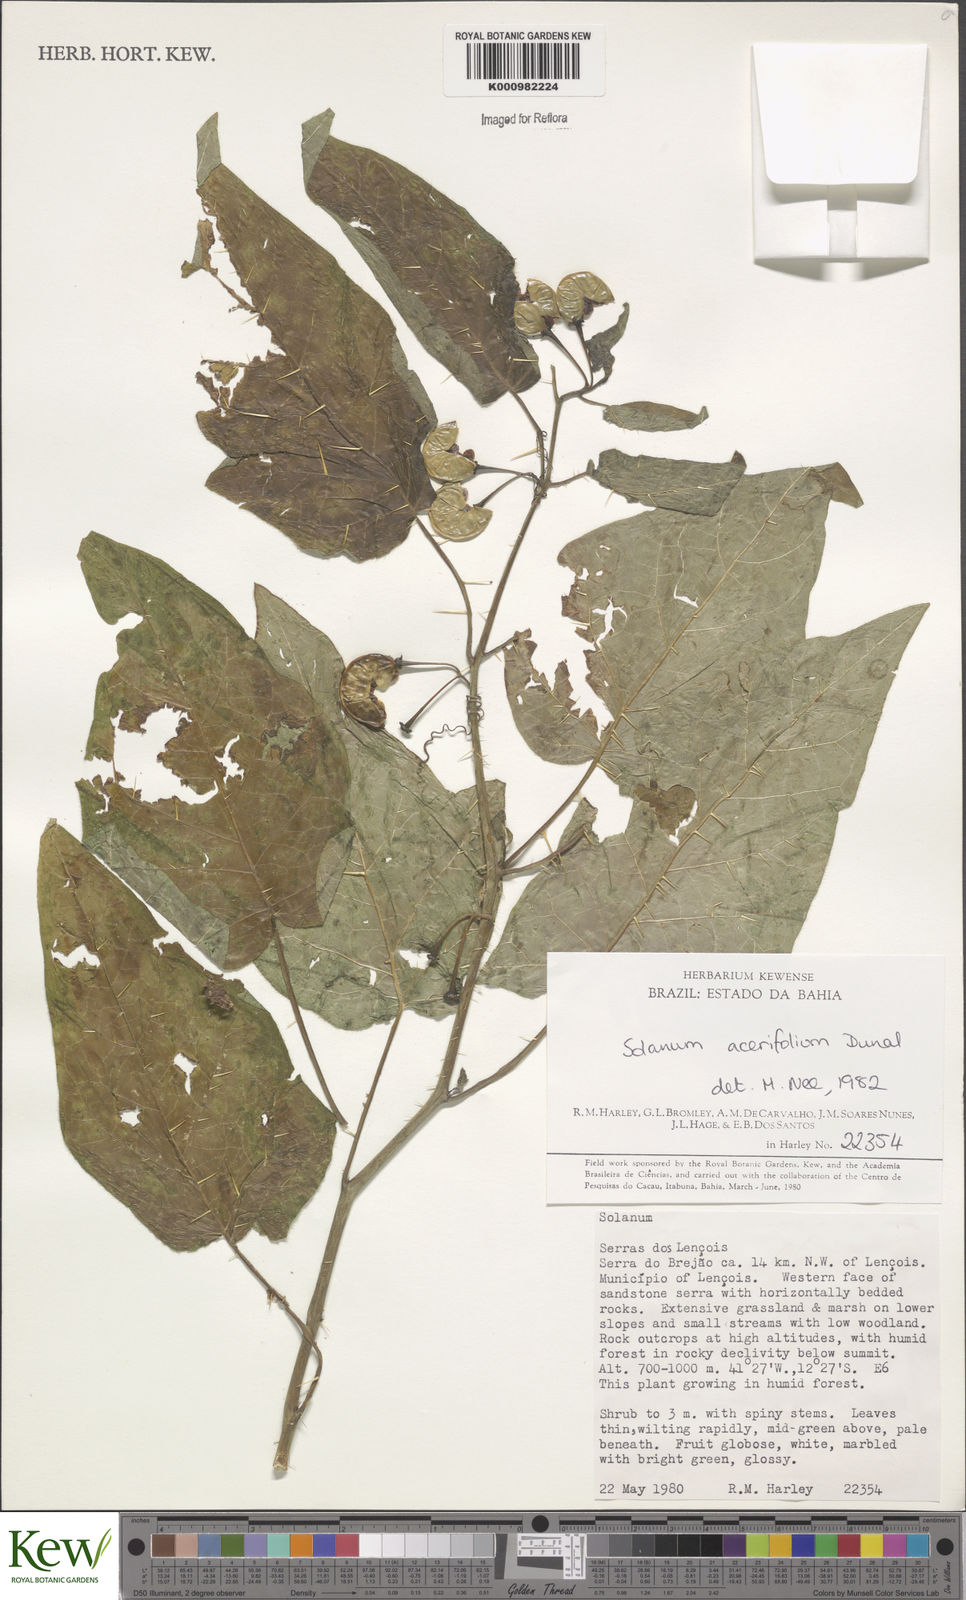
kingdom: Plantae
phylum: Tracheophyta
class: Magnoliopsida
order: Solanales
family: Solanaceae
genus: Solanum
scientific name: Solanum acerifolium
